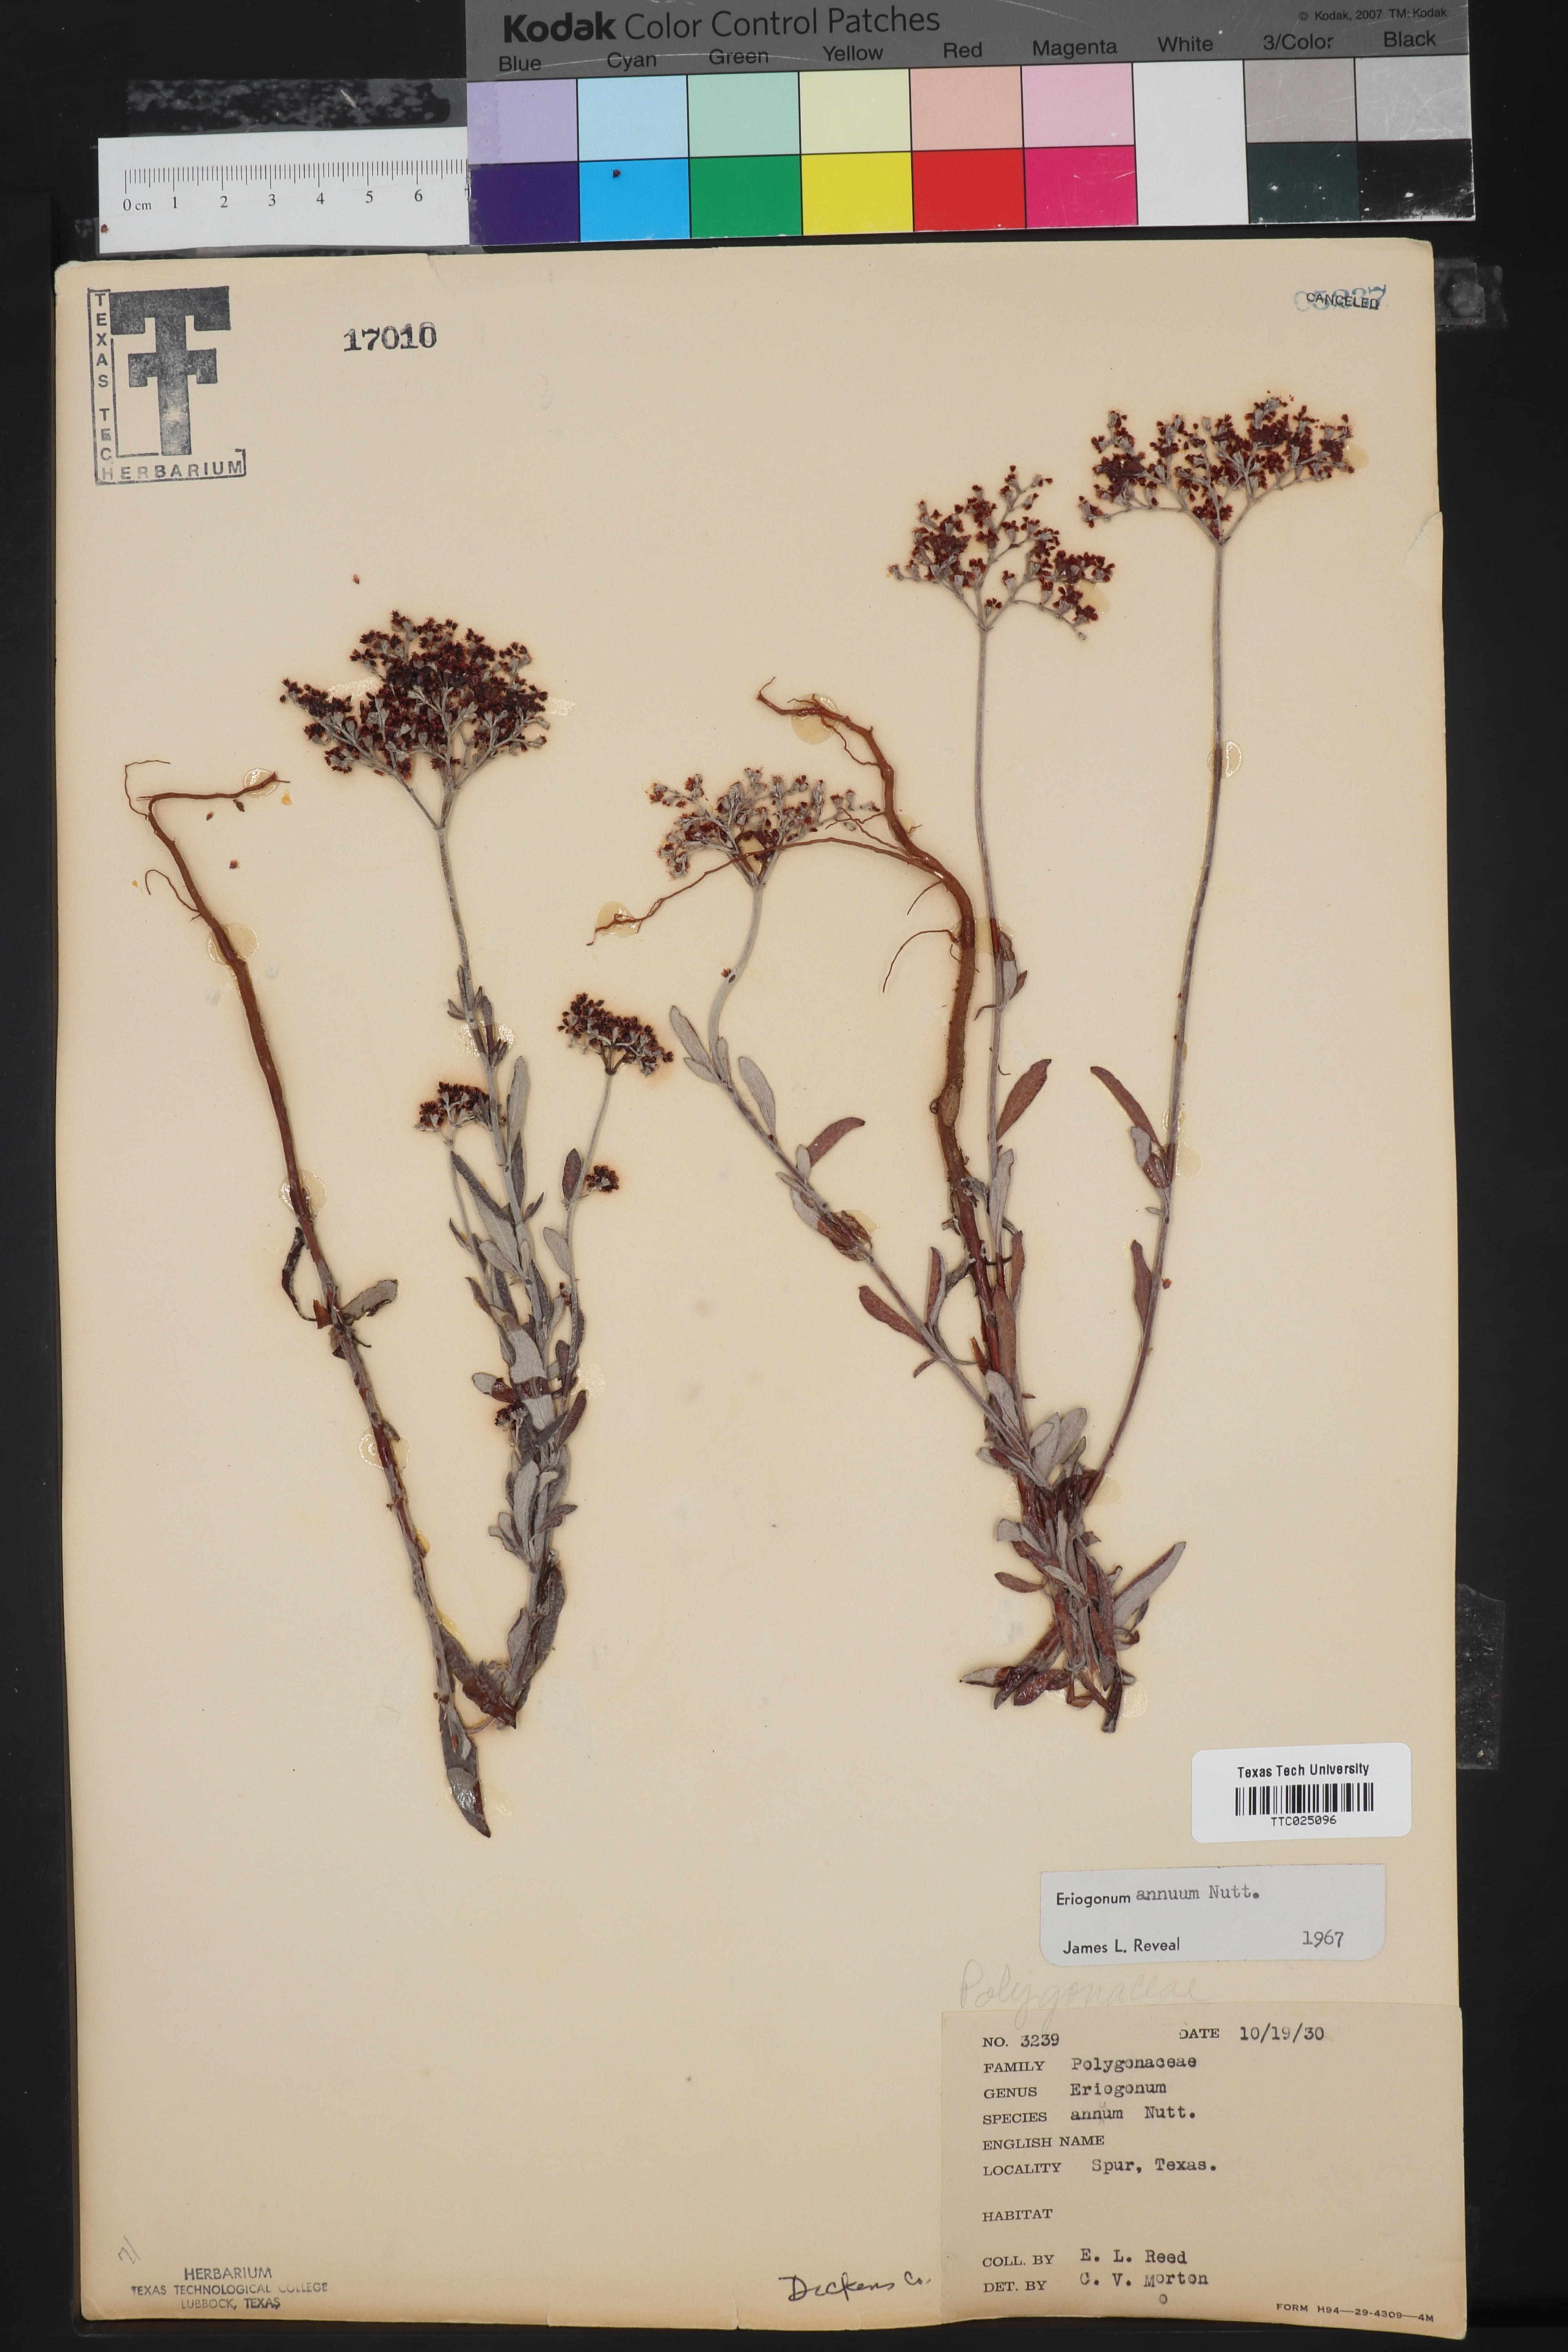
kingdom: Plantae
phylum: Tracheophyta
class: Magnoliopsida
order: Caryophyllales
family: Polygonaceae
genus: Eriogonum
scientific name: Eriogonum annuum
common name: Annual wild buckwheat
